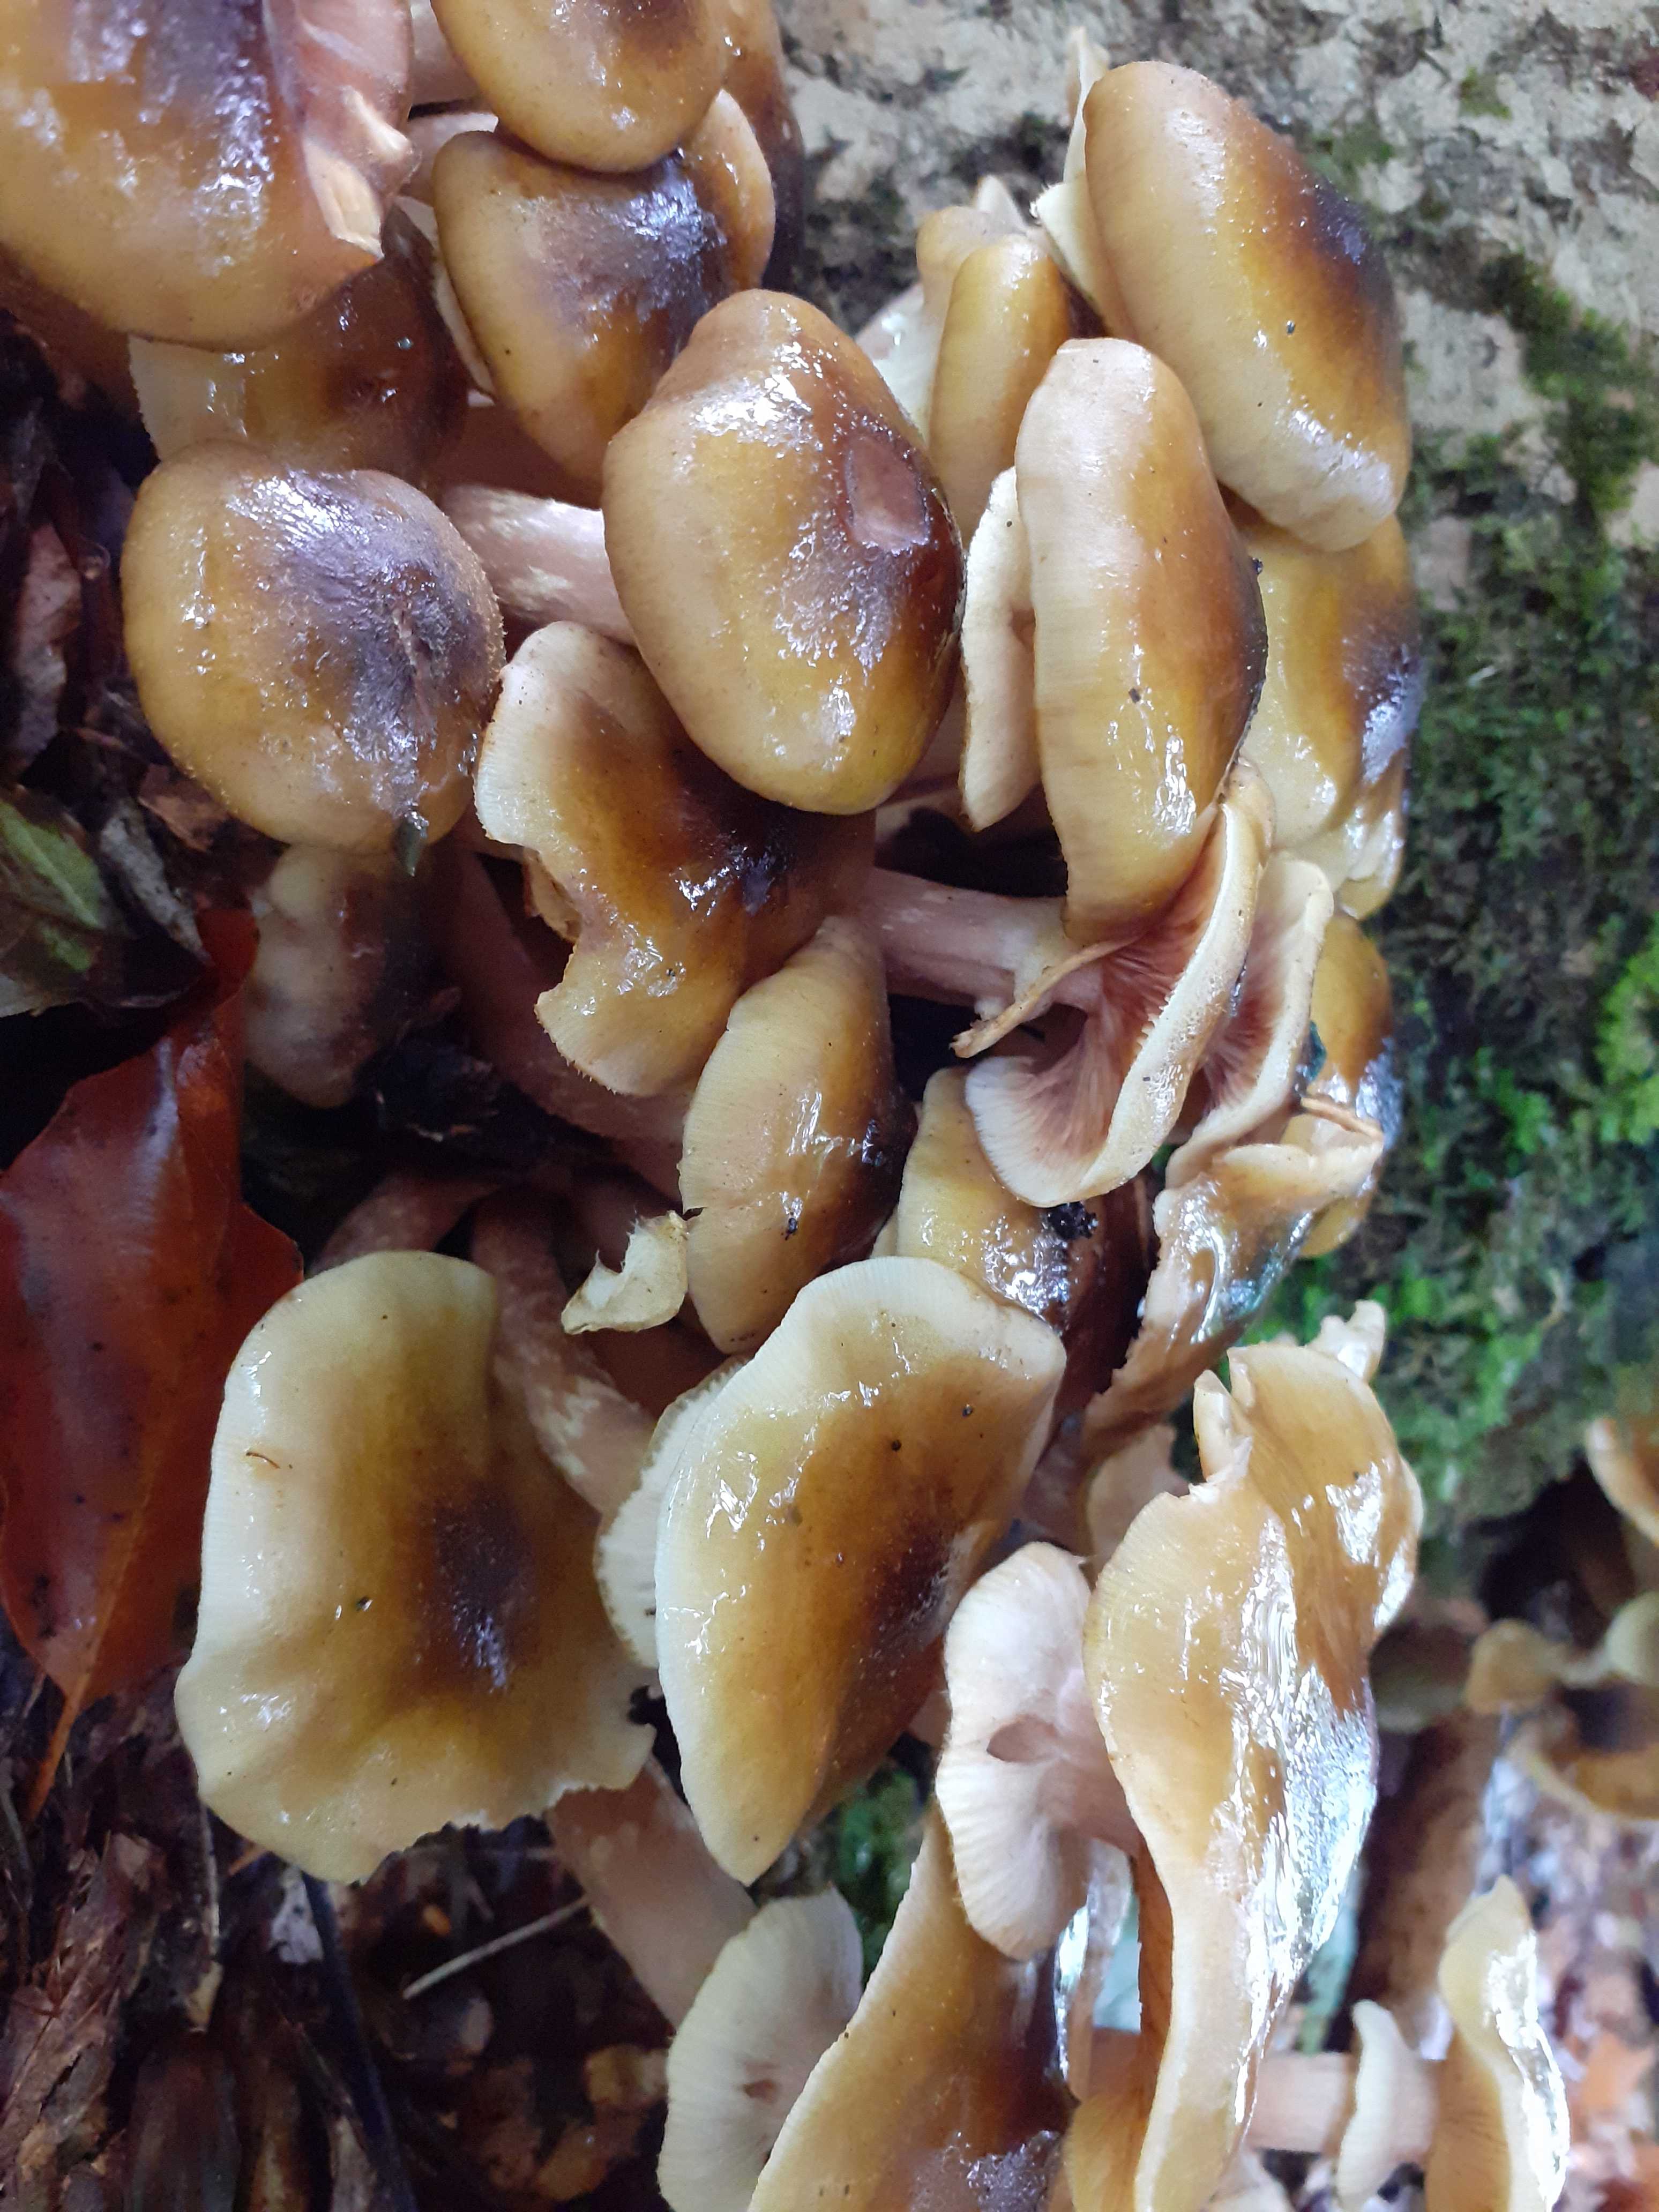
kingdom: Fungi
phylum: Basidiomycota
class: Agaricomycetes
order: Agaricales
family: Physalacriaceae
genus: Armillaria
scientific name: Armillaria mellea
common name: ægte honningsvamp
